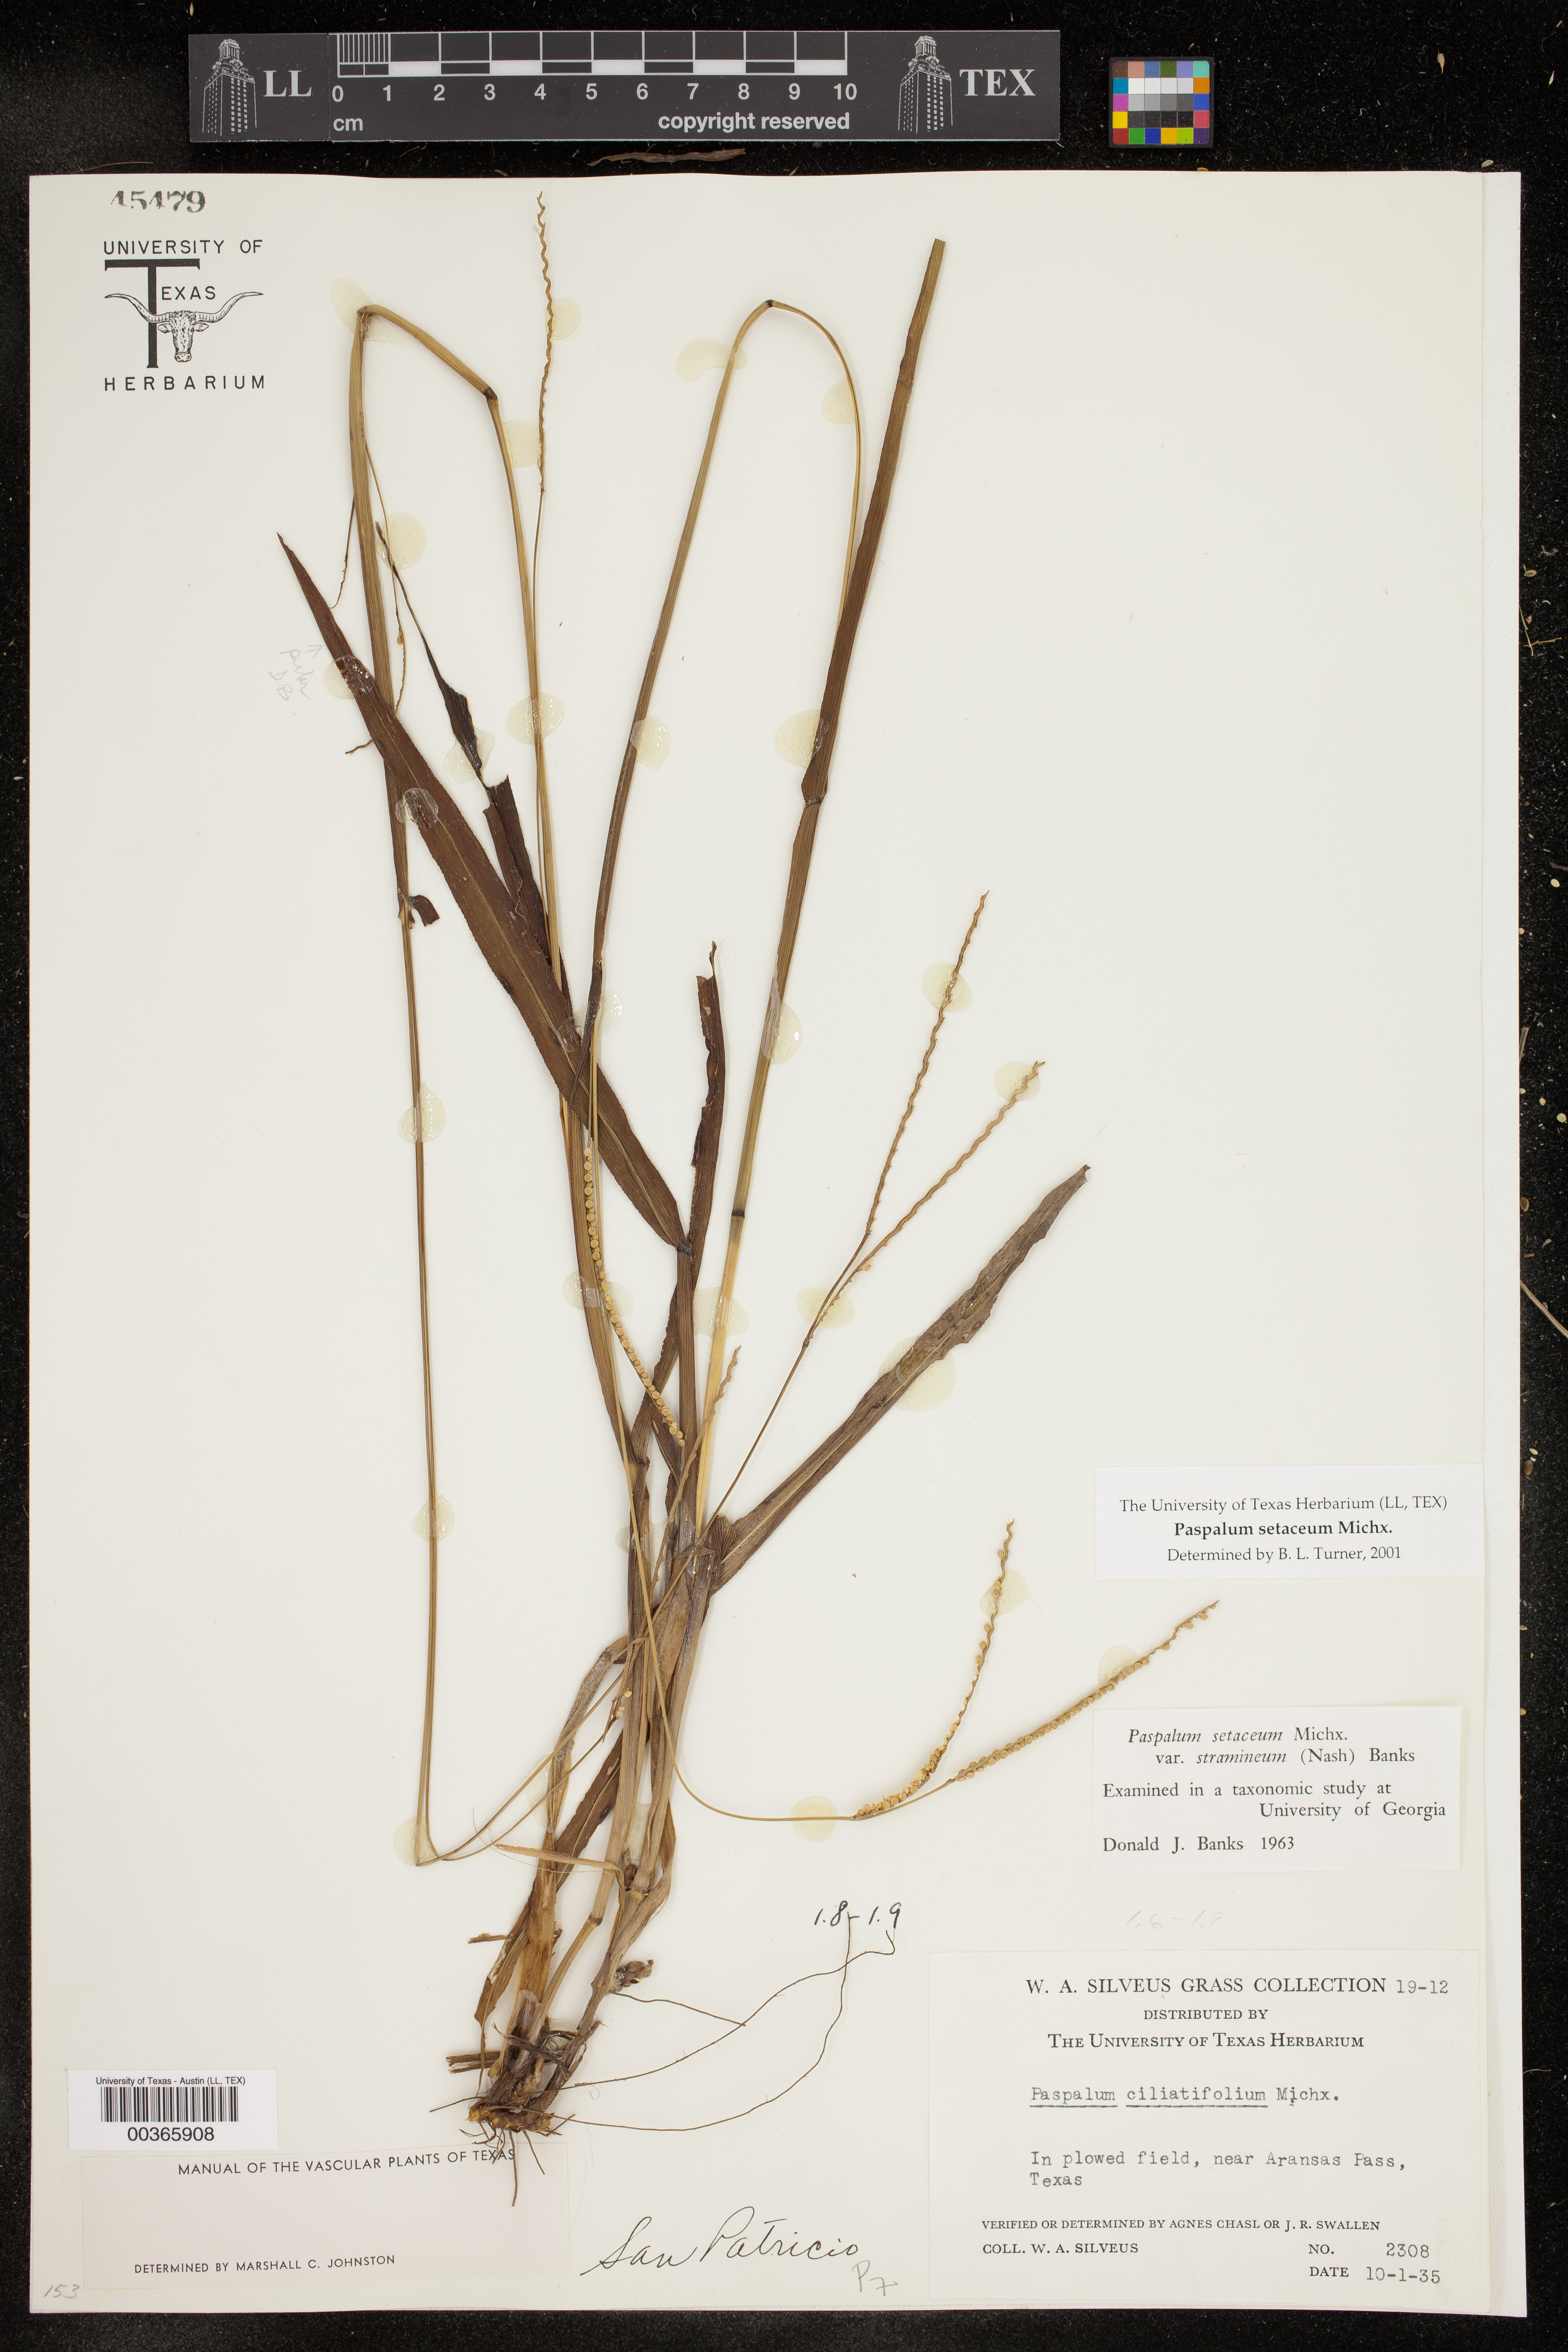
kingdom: Plantae
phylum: Tracheophyta
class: Liliopsida
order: Poales
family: Poaceae
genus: Paspalum
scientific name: Paspalum setaceum
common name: Slender paspalum
